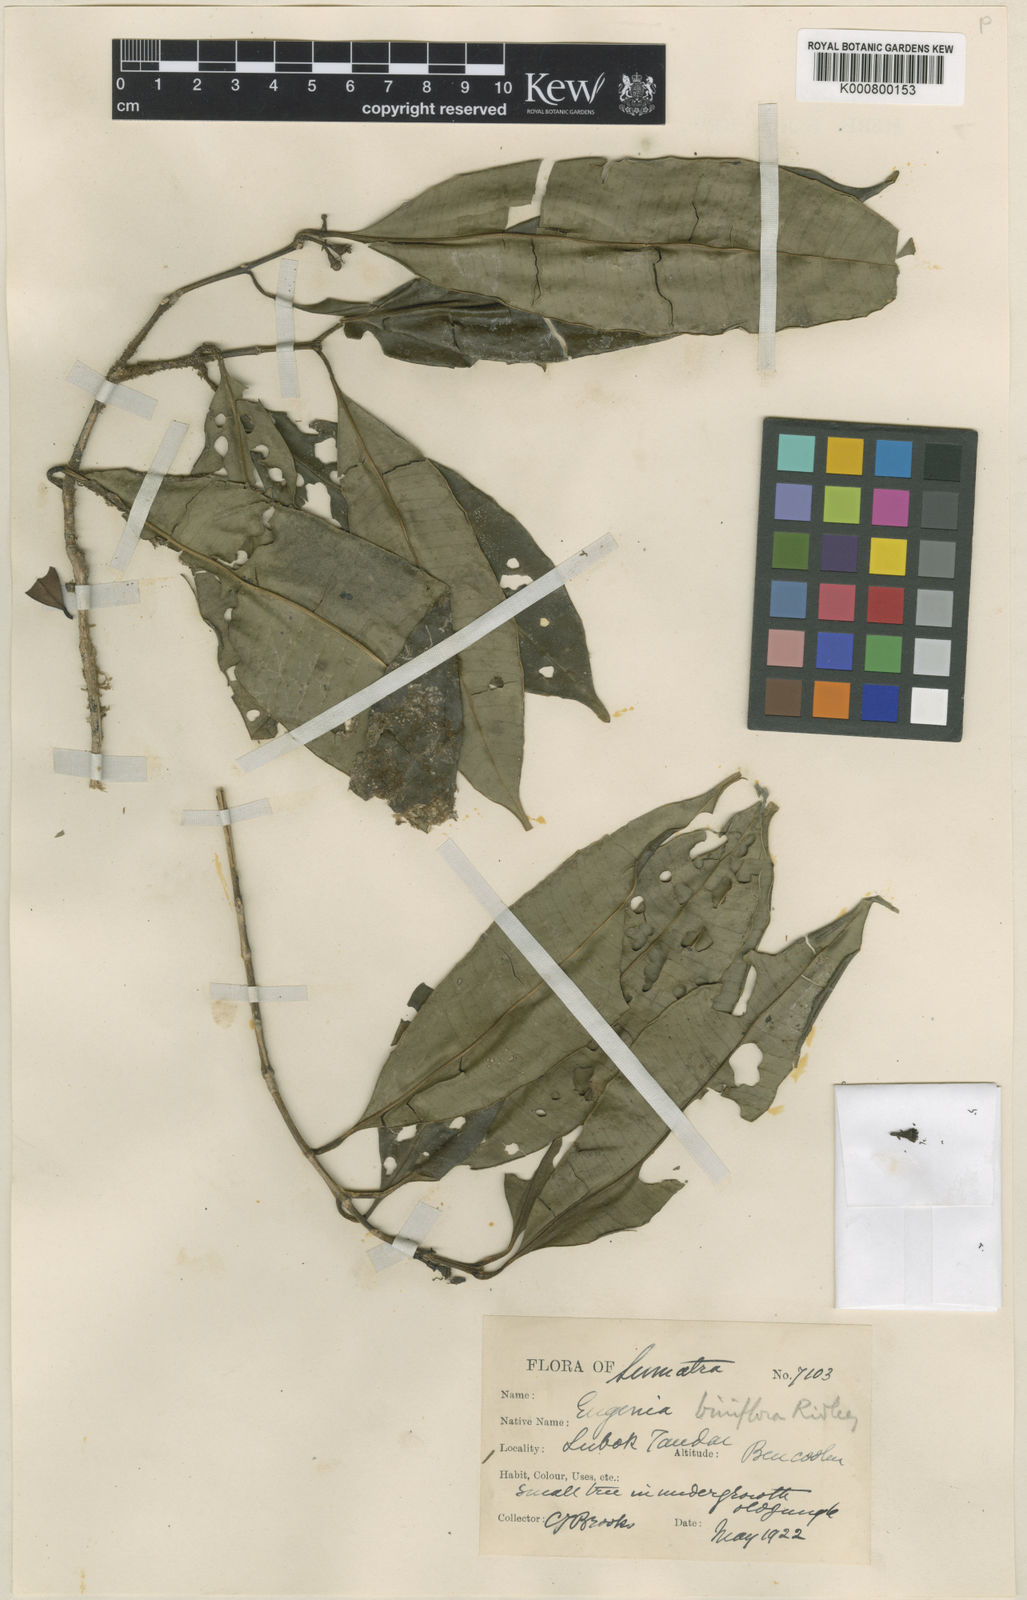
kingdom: Plantae
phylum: Tracheophyta
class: Magnoliopsida
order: Myrtales
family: Myrtaceae
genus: Syzygium
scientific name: Syzygium biniflorum
